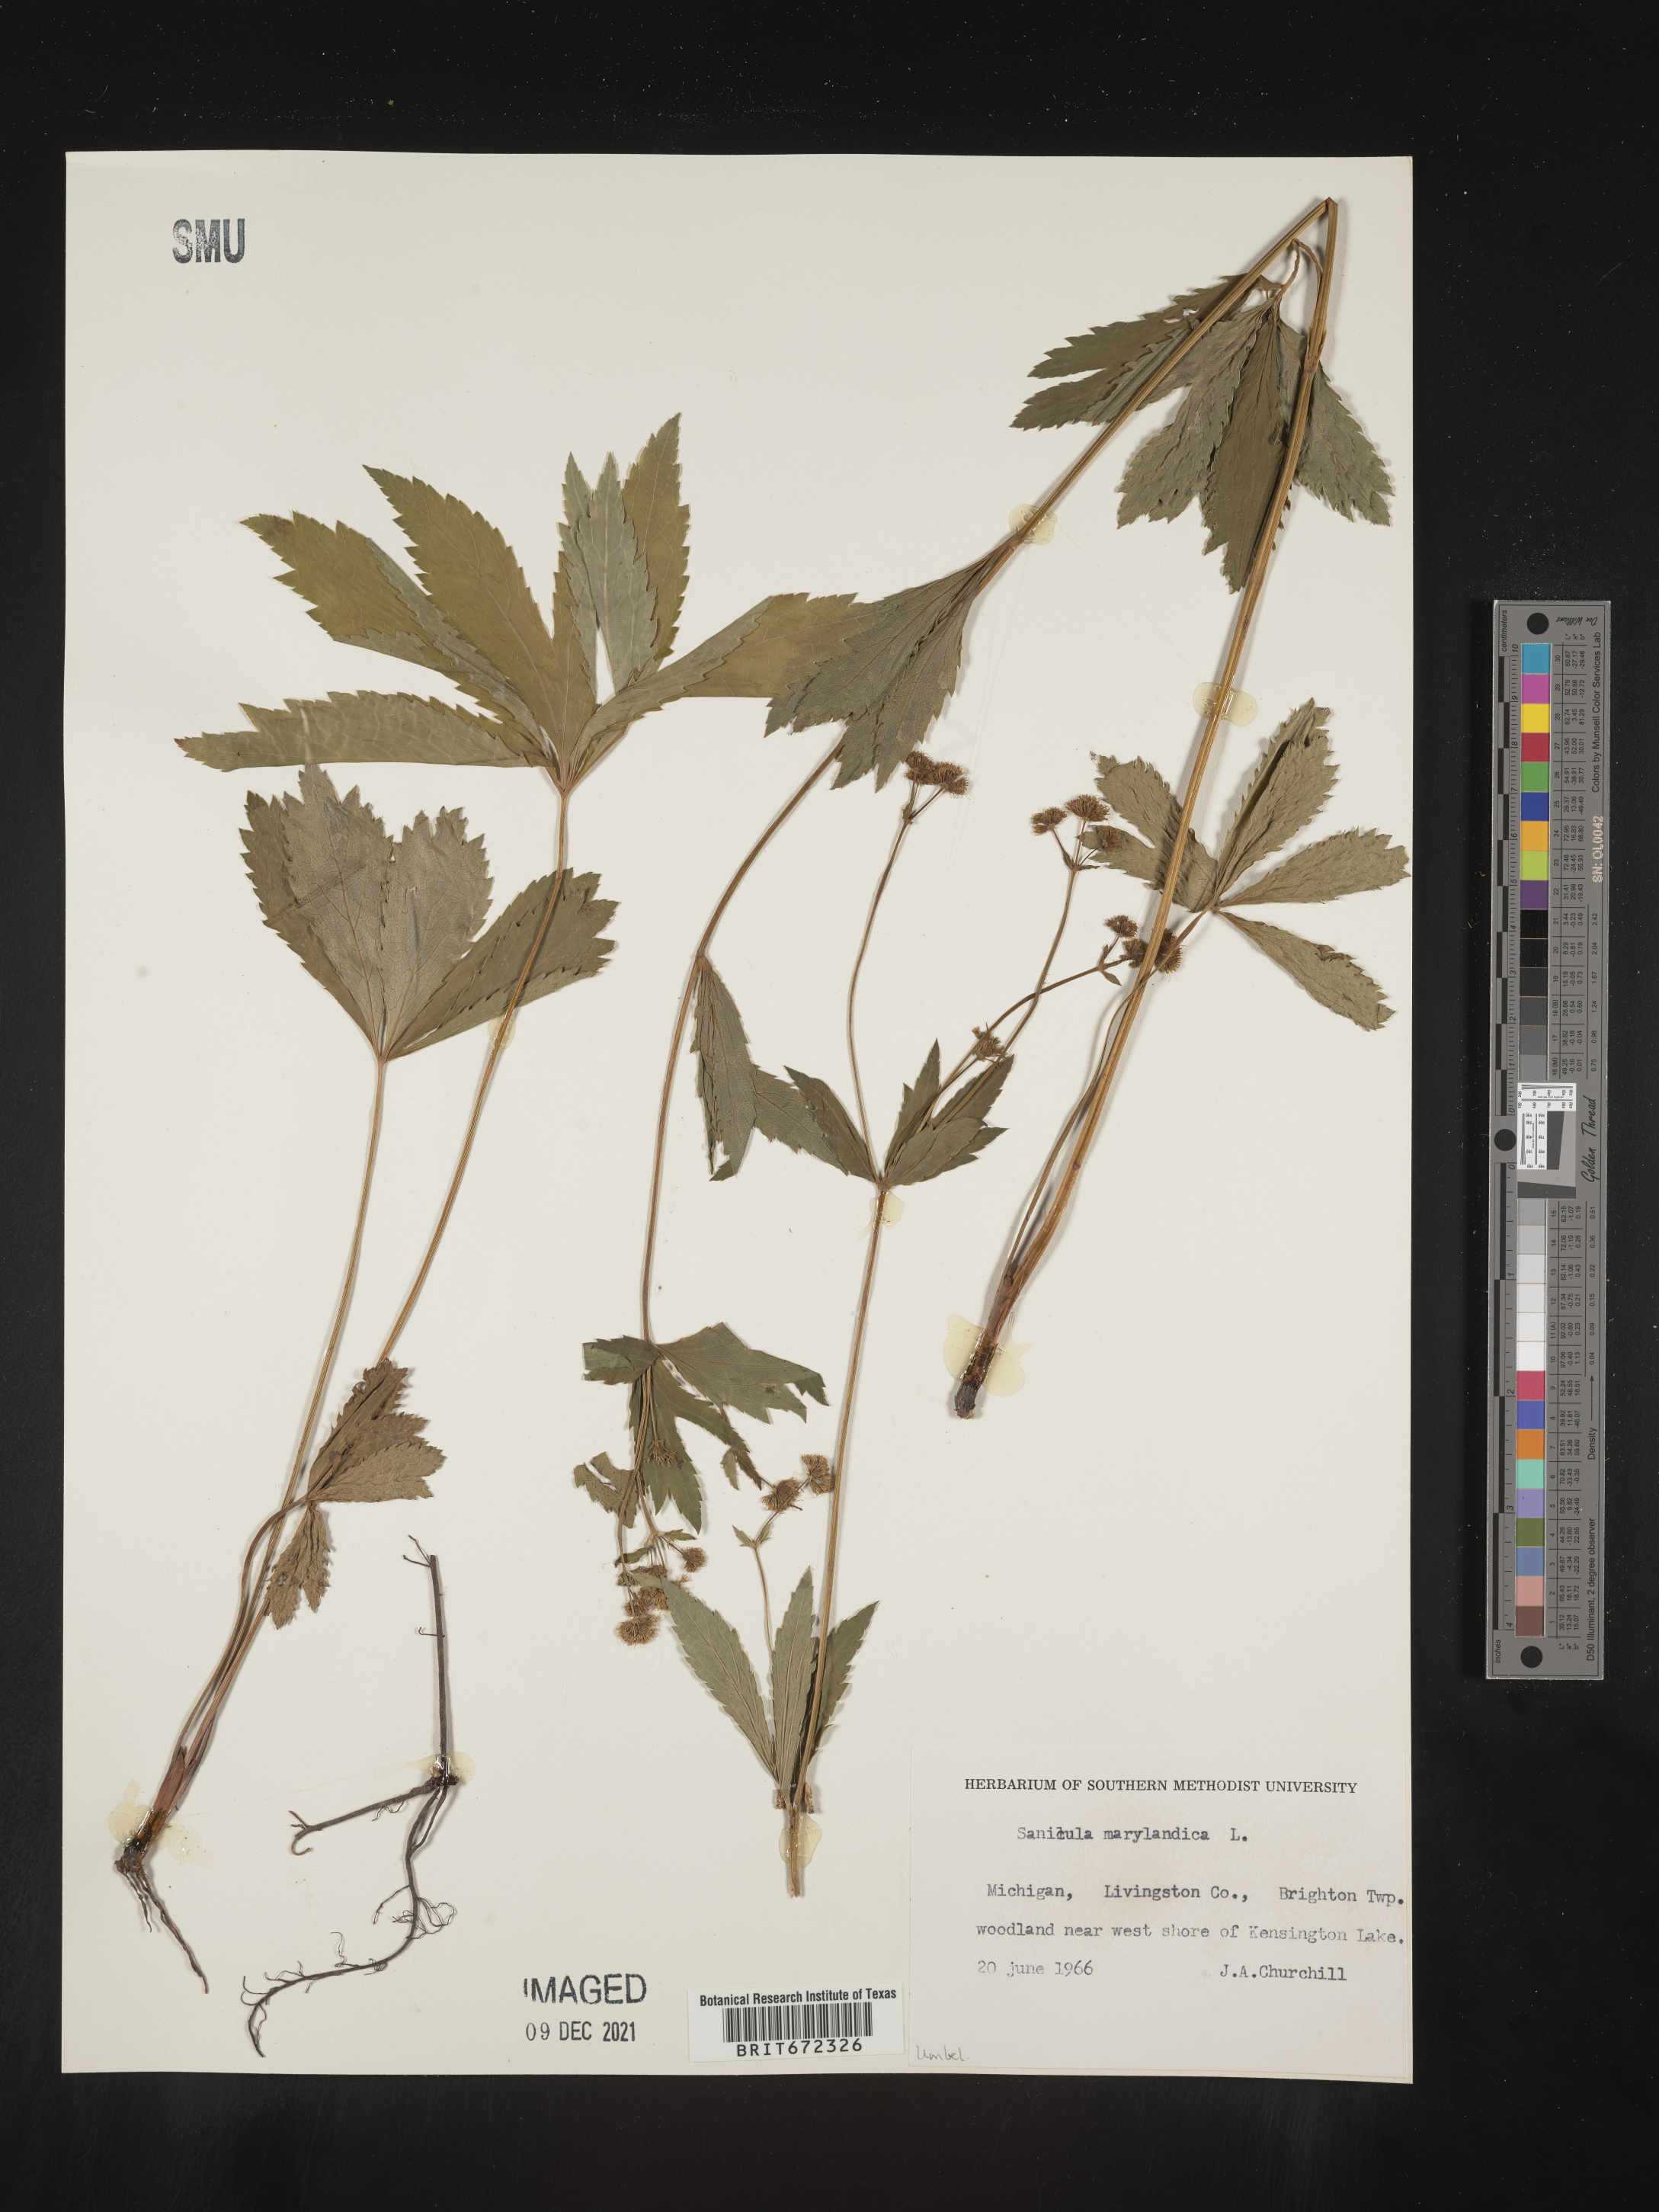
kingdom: Plantae
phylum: Tracheophyta
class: Magnoliopsida
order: Apiales
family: Apiaceae
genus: Sanicula
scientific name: Sanicula marilandica
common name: Black snakeroot
